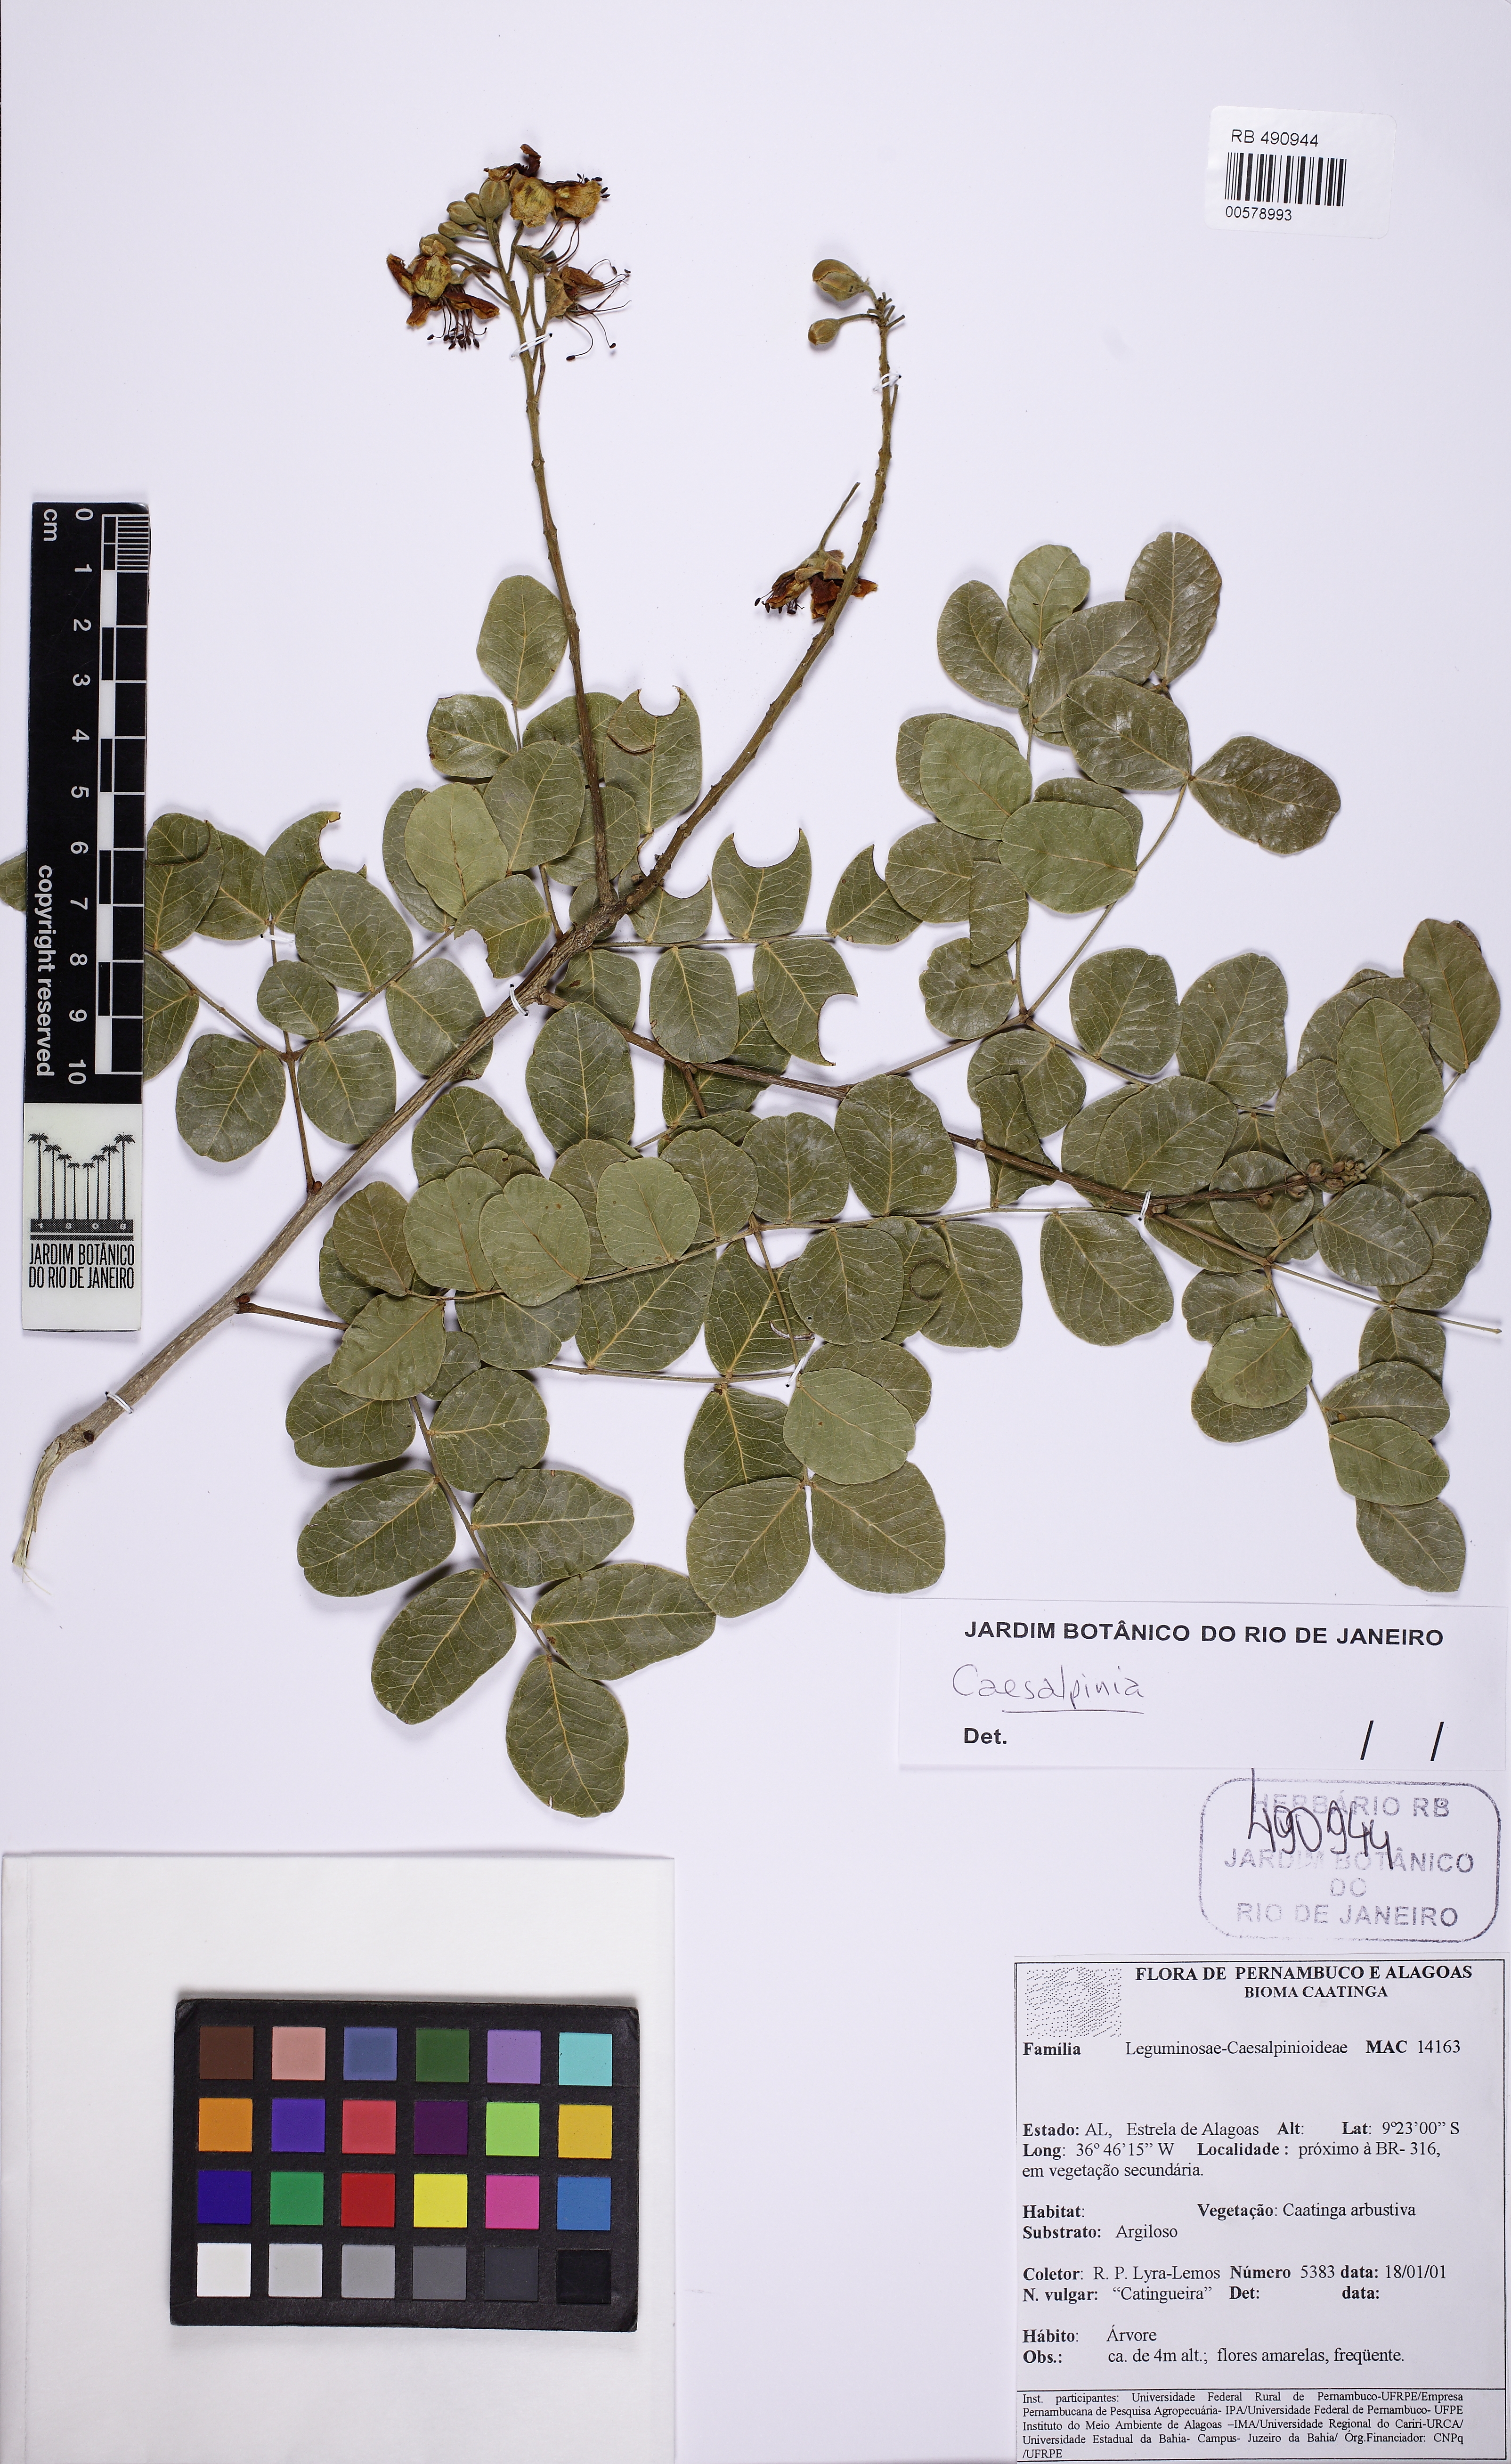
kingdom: Plantae
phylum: Tracheophyta
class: Magnoliopsida
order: Fabales
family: Fabaceae
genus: Cenostigma
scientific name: Cenostigma bracteosum
